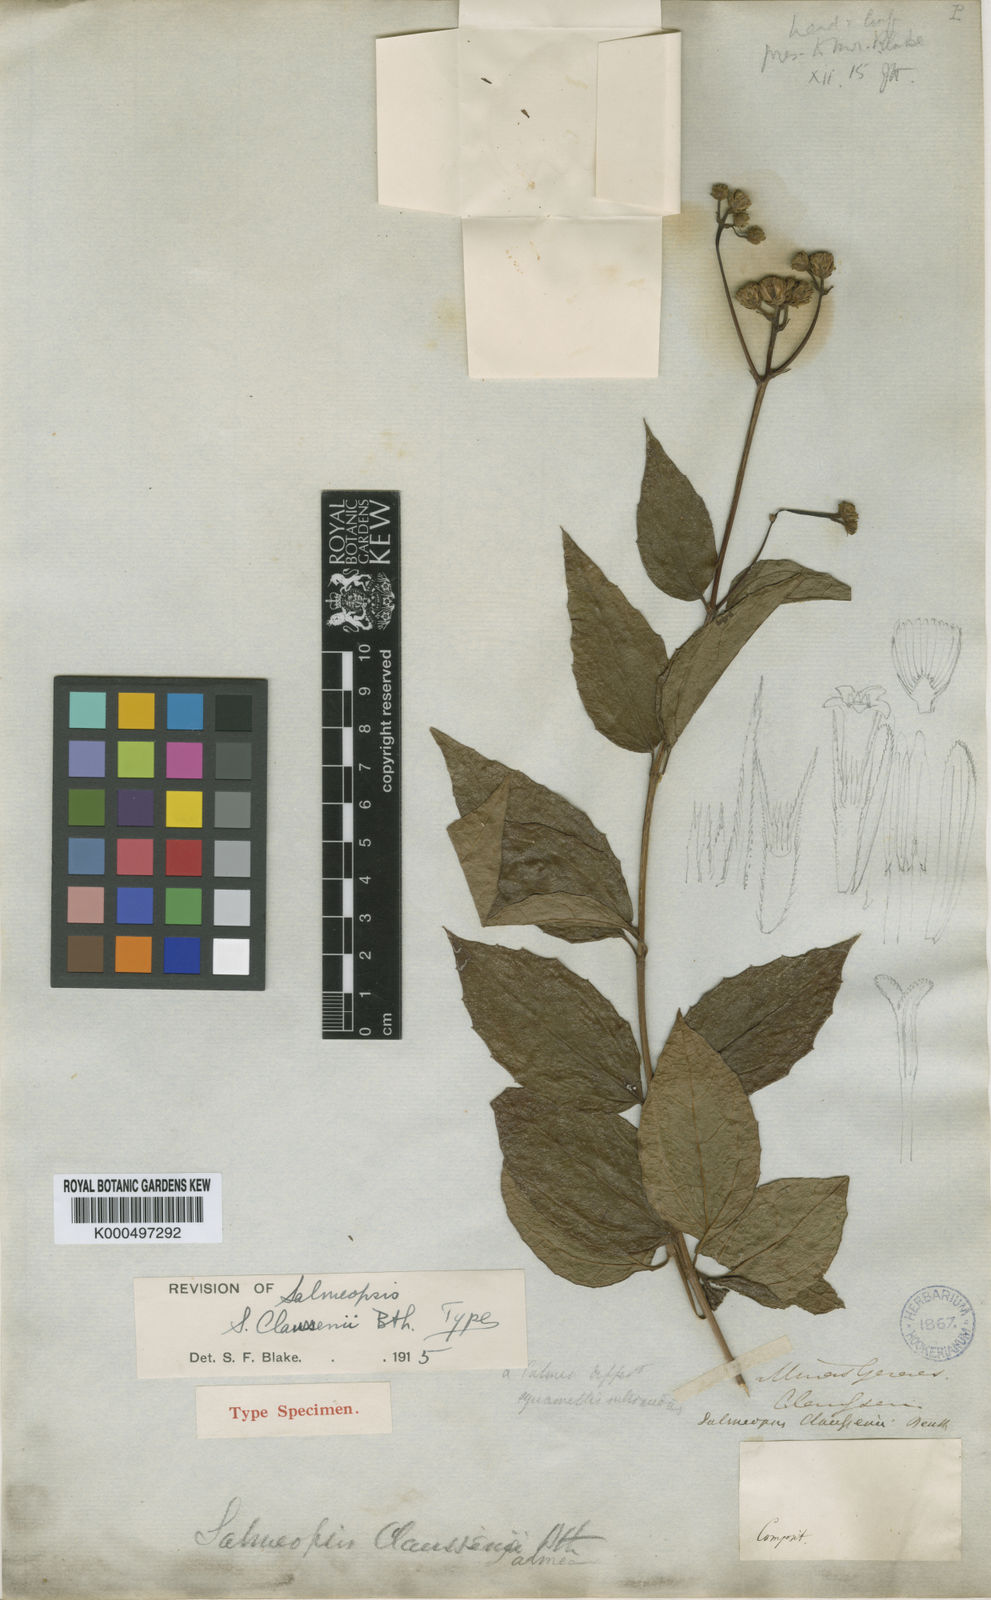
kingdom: Plantae
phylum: Tracheophyta
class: Magnoliopsida
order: Asterales
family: Asteraceae
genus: Salmea
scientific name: Salmea scandens
